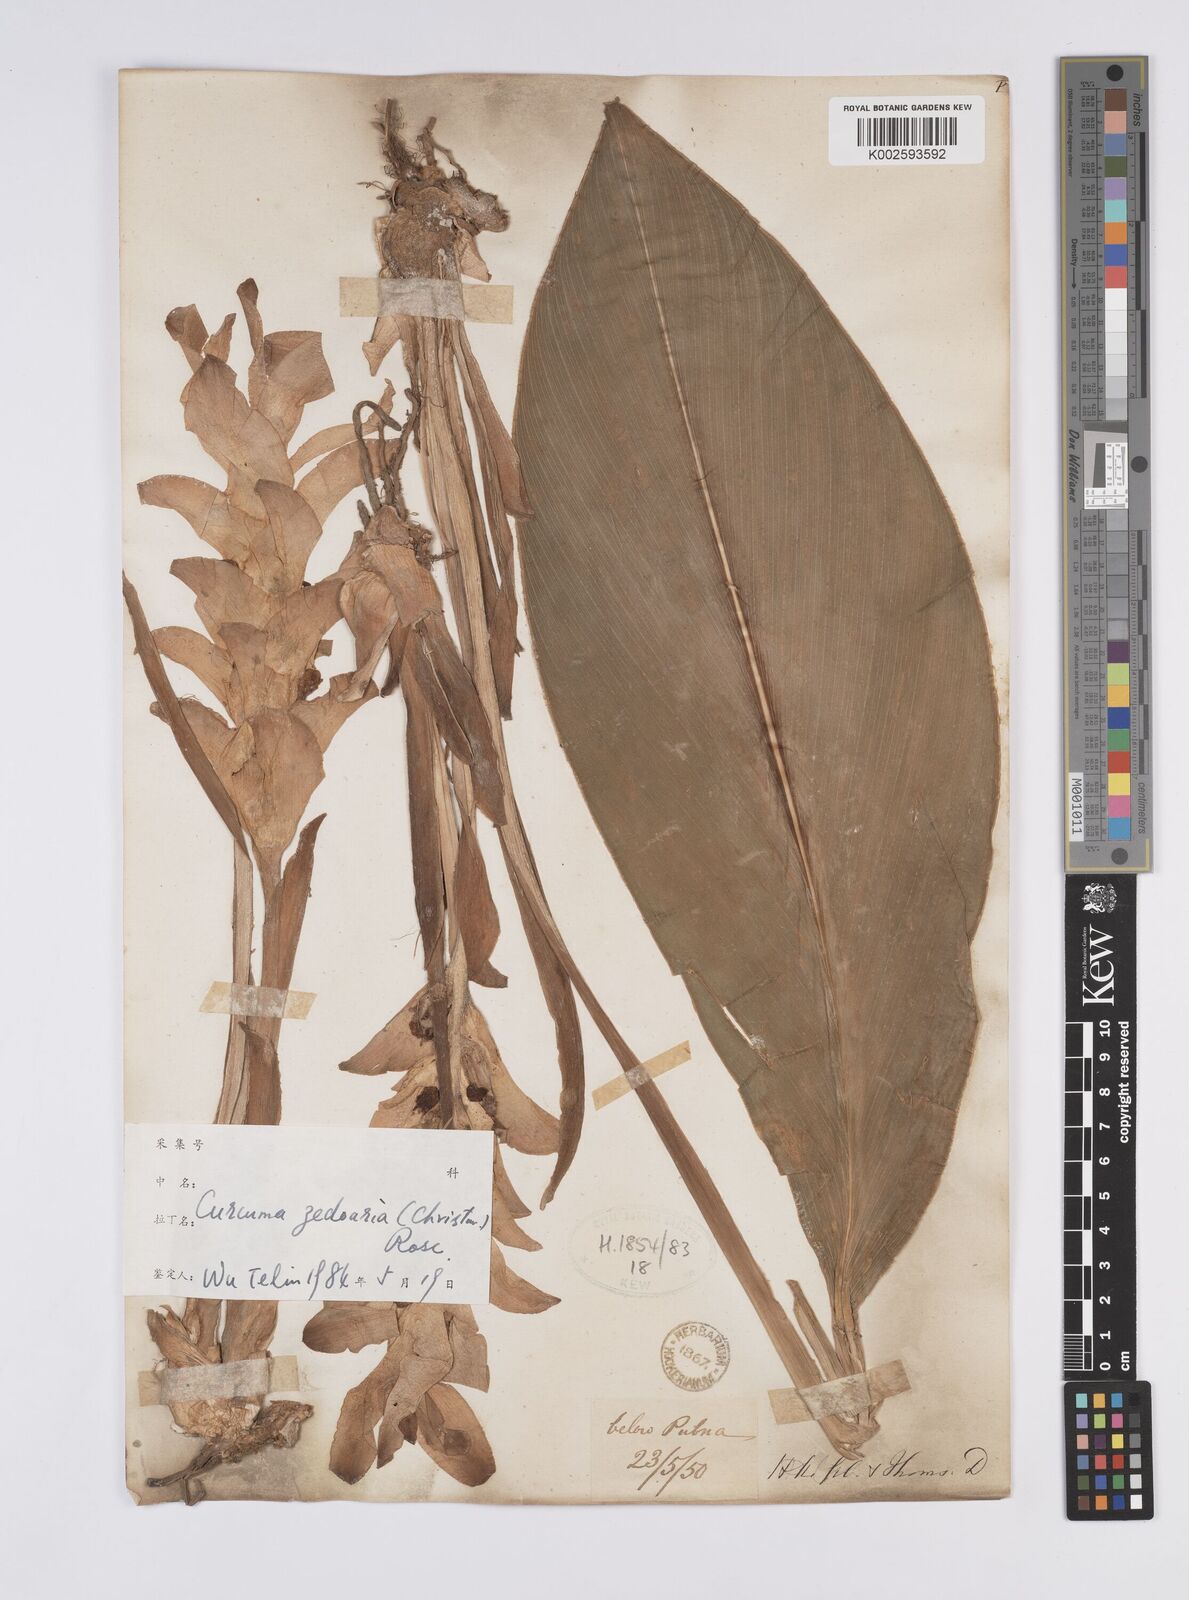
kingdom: Plantae
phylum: Tracheophyta
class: Liliopsida
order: Zingiberales
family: Zingiberaceae
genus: Curcuma
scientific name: Curcuma aromatica
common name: Wild turmeric
